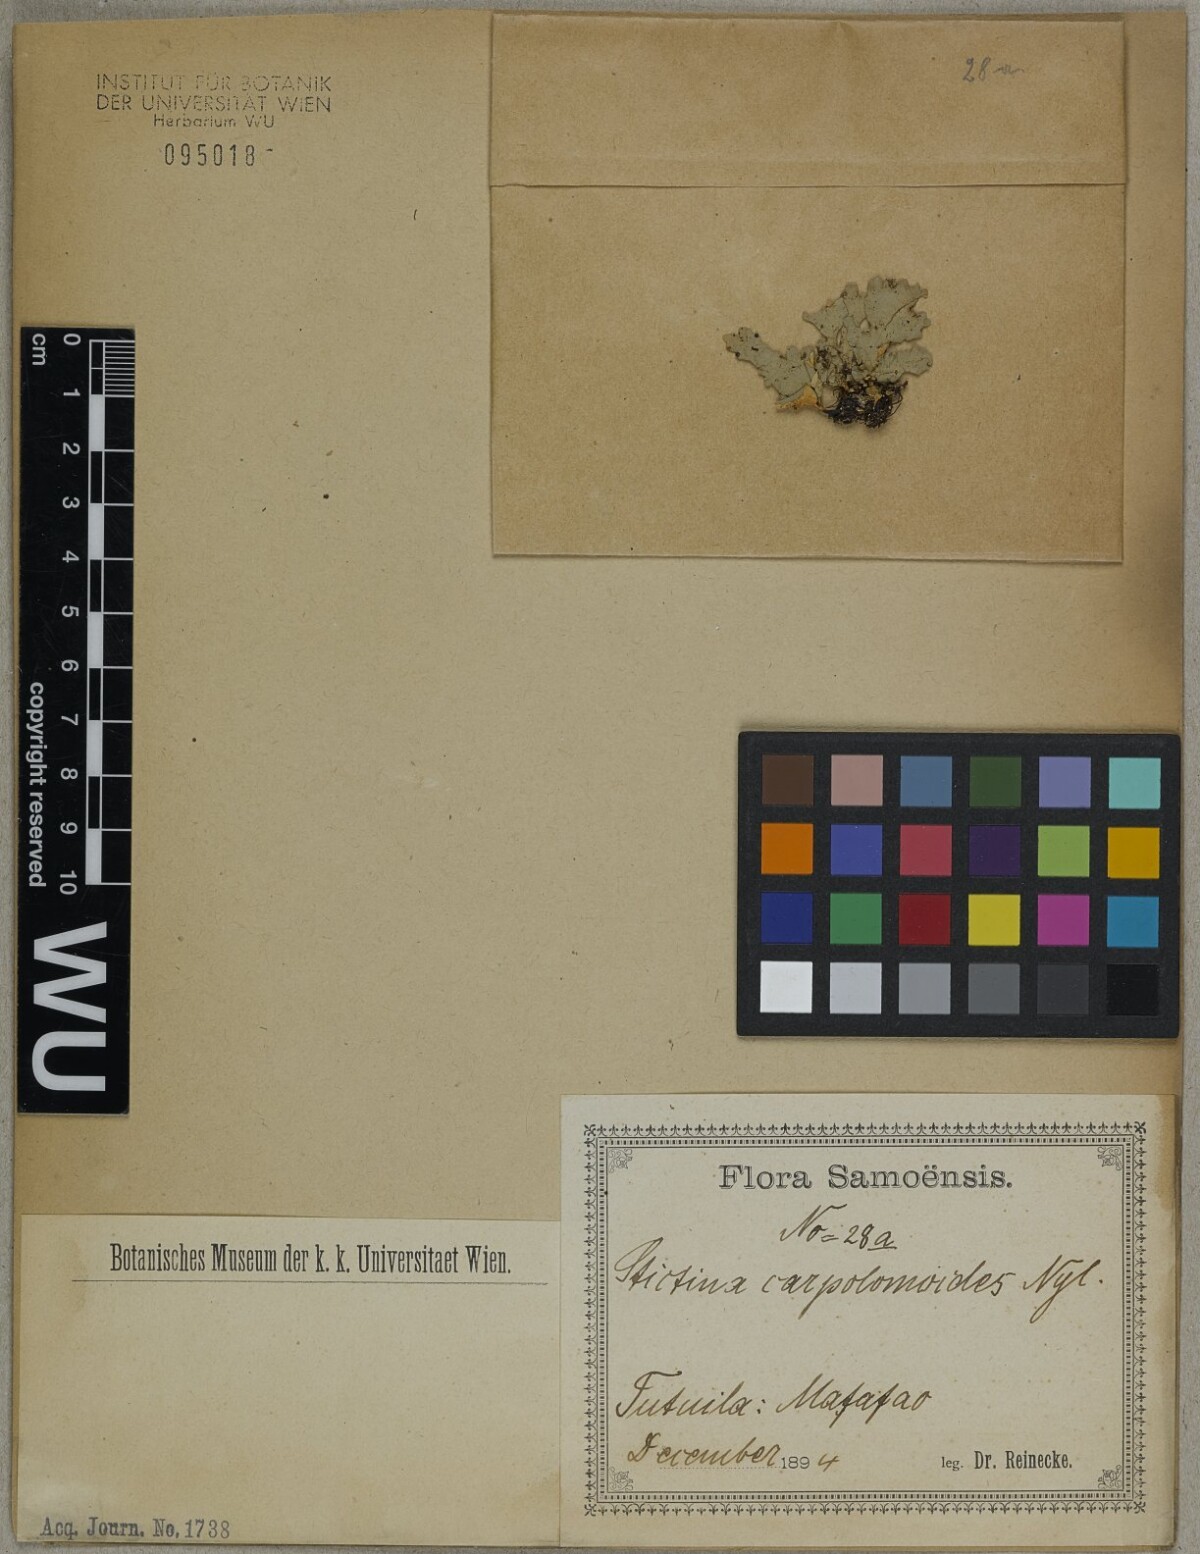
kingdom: Fungi
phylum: Ascomycota
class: Lecanoromycetes
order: Peltigerales
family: Lobariaceae
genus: Sticta
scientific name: Sticta
